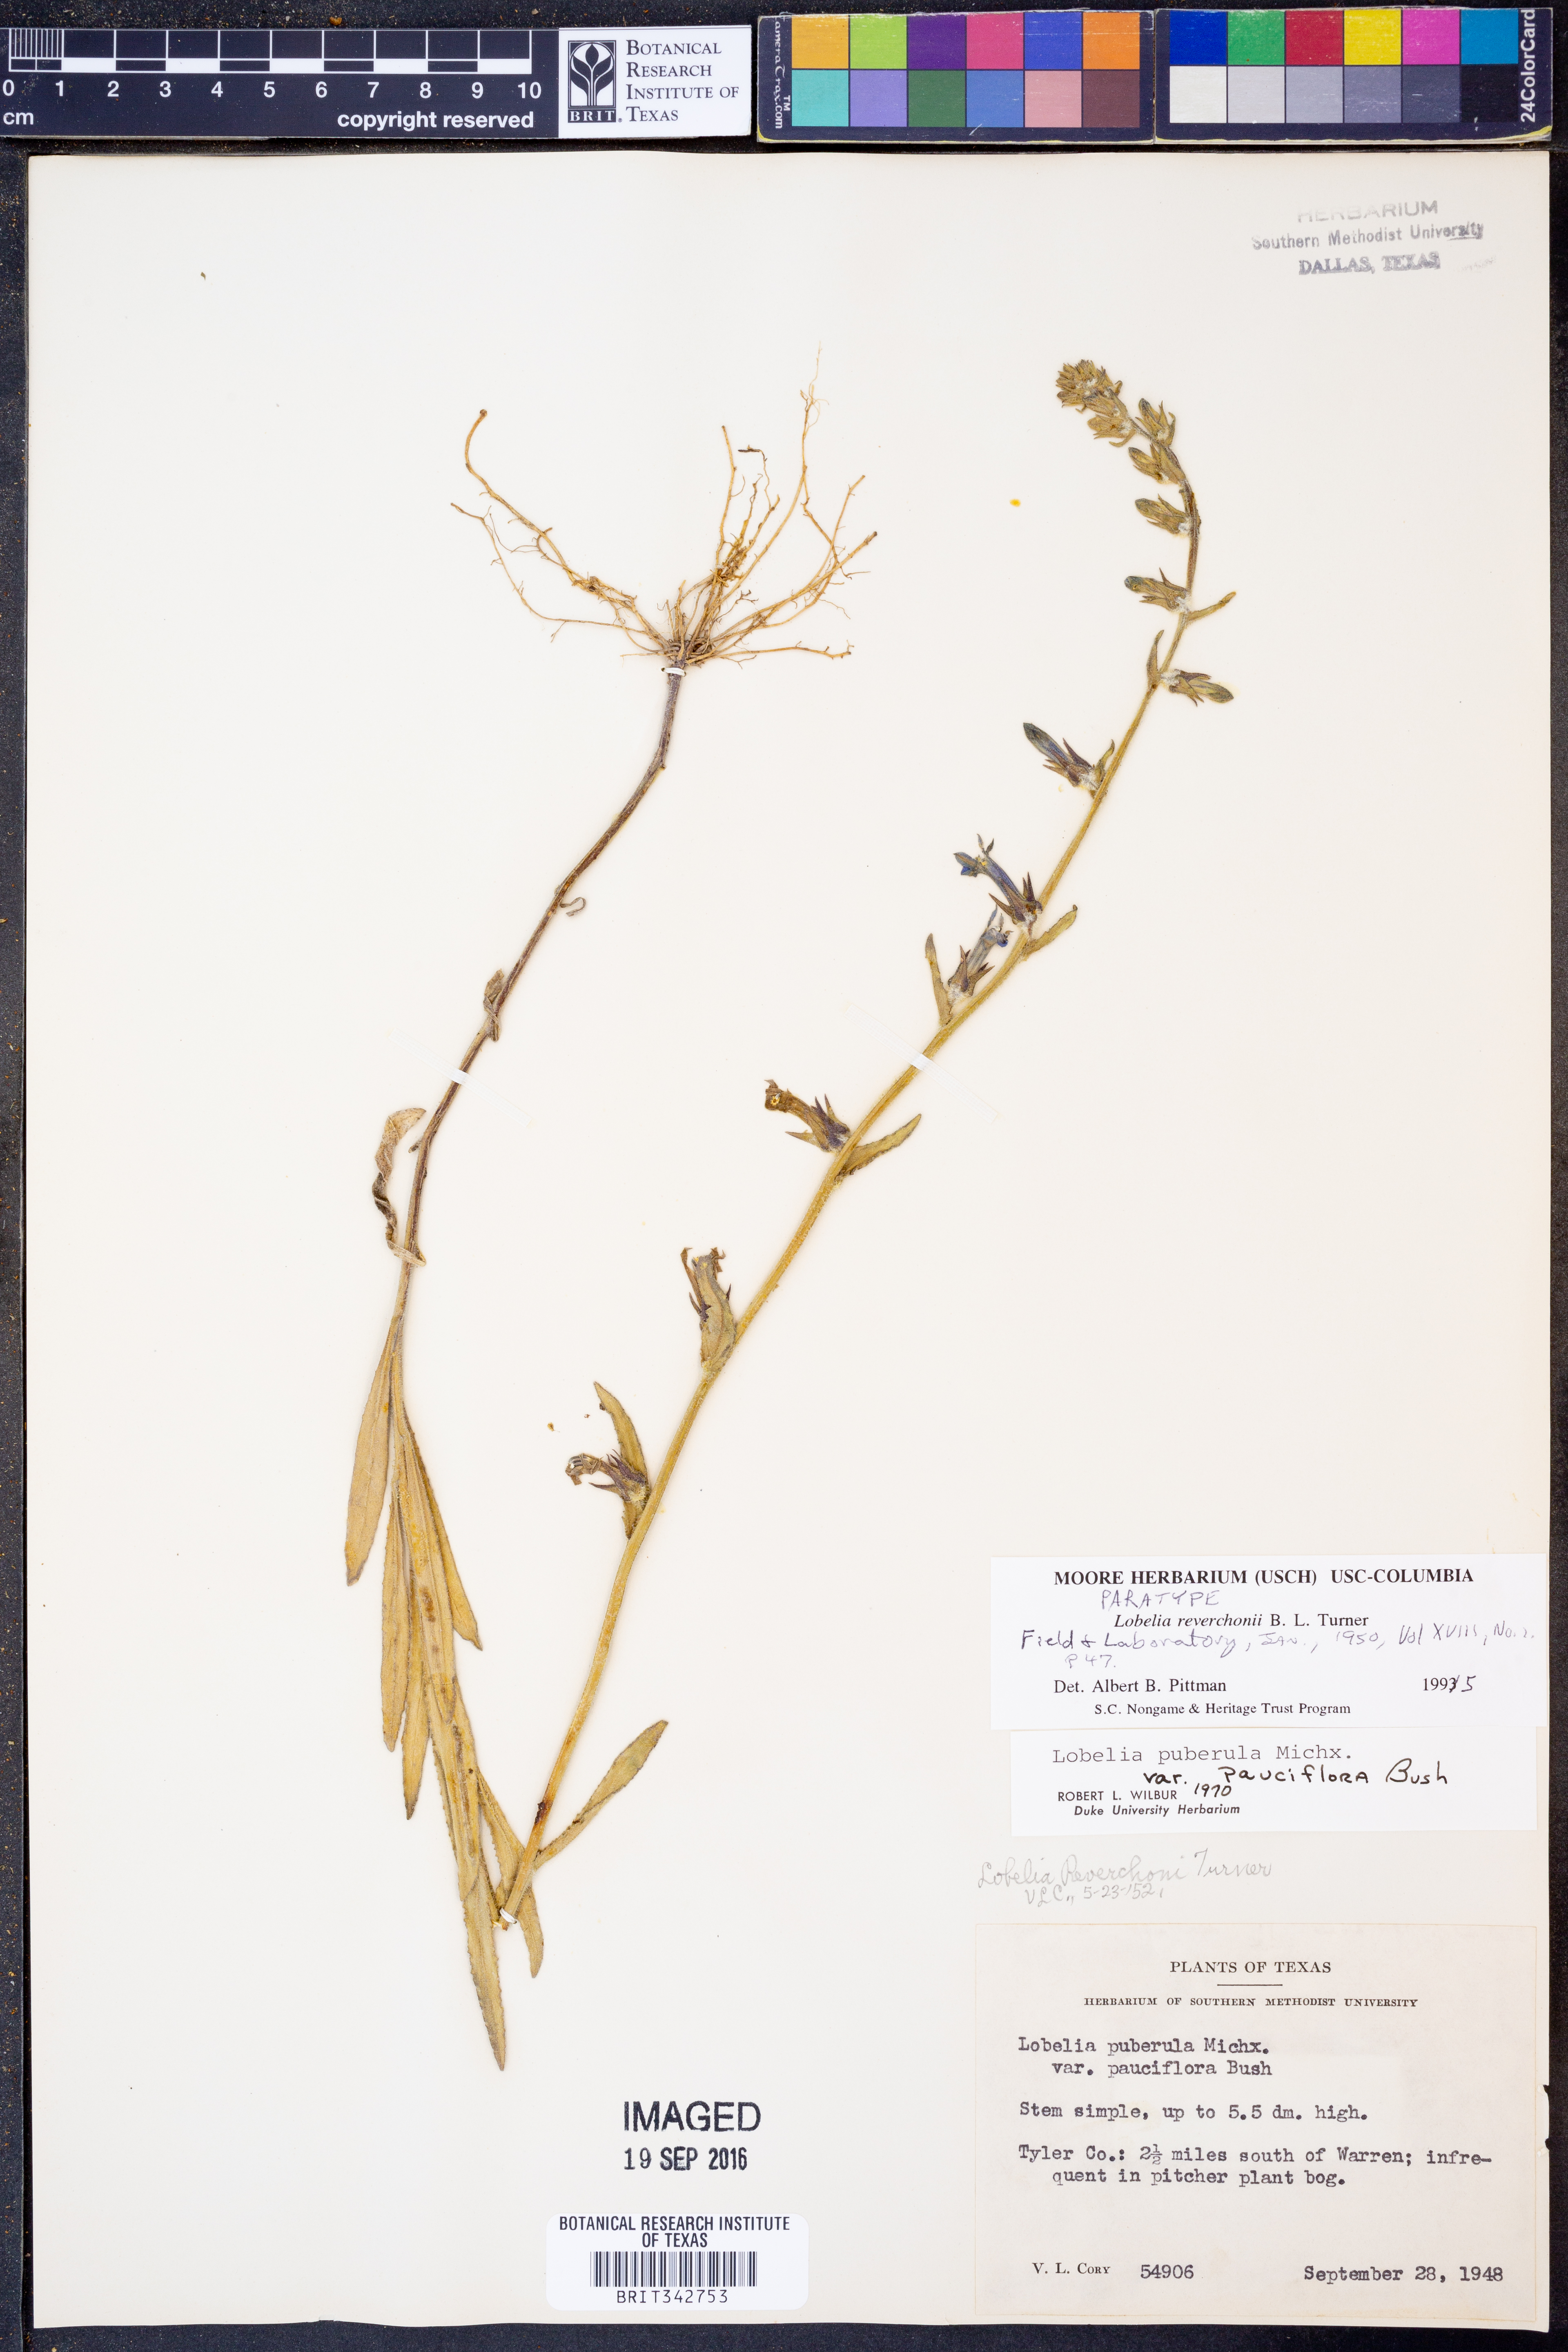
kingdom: Plantae
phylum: Tracheophyta
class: Magnoliopsida
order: Asterales
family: Campanulaceae
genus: Lobelia
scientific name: Lobelia reverchonii
